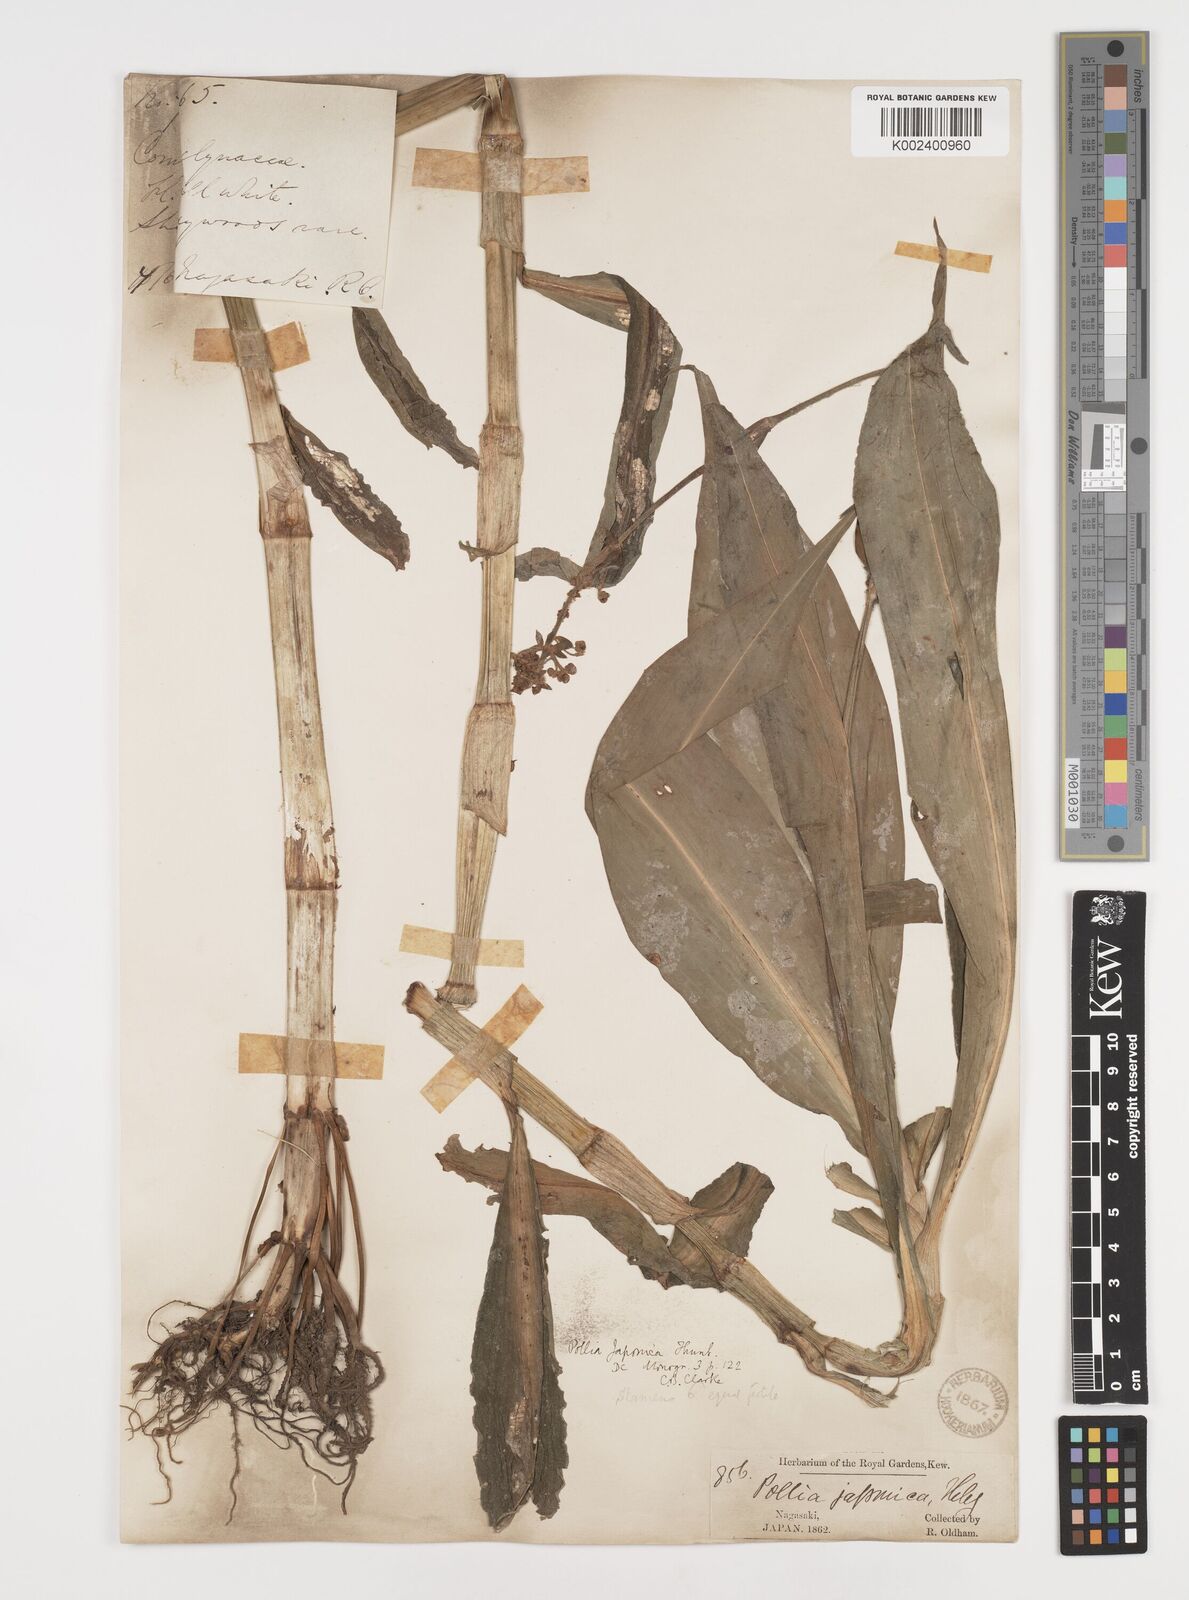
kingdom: Plantae
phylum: Tracheophyta
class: Liliopsida
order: Commelinales
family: Commelinaceae
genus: Pollia
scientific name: Pollia japonica
